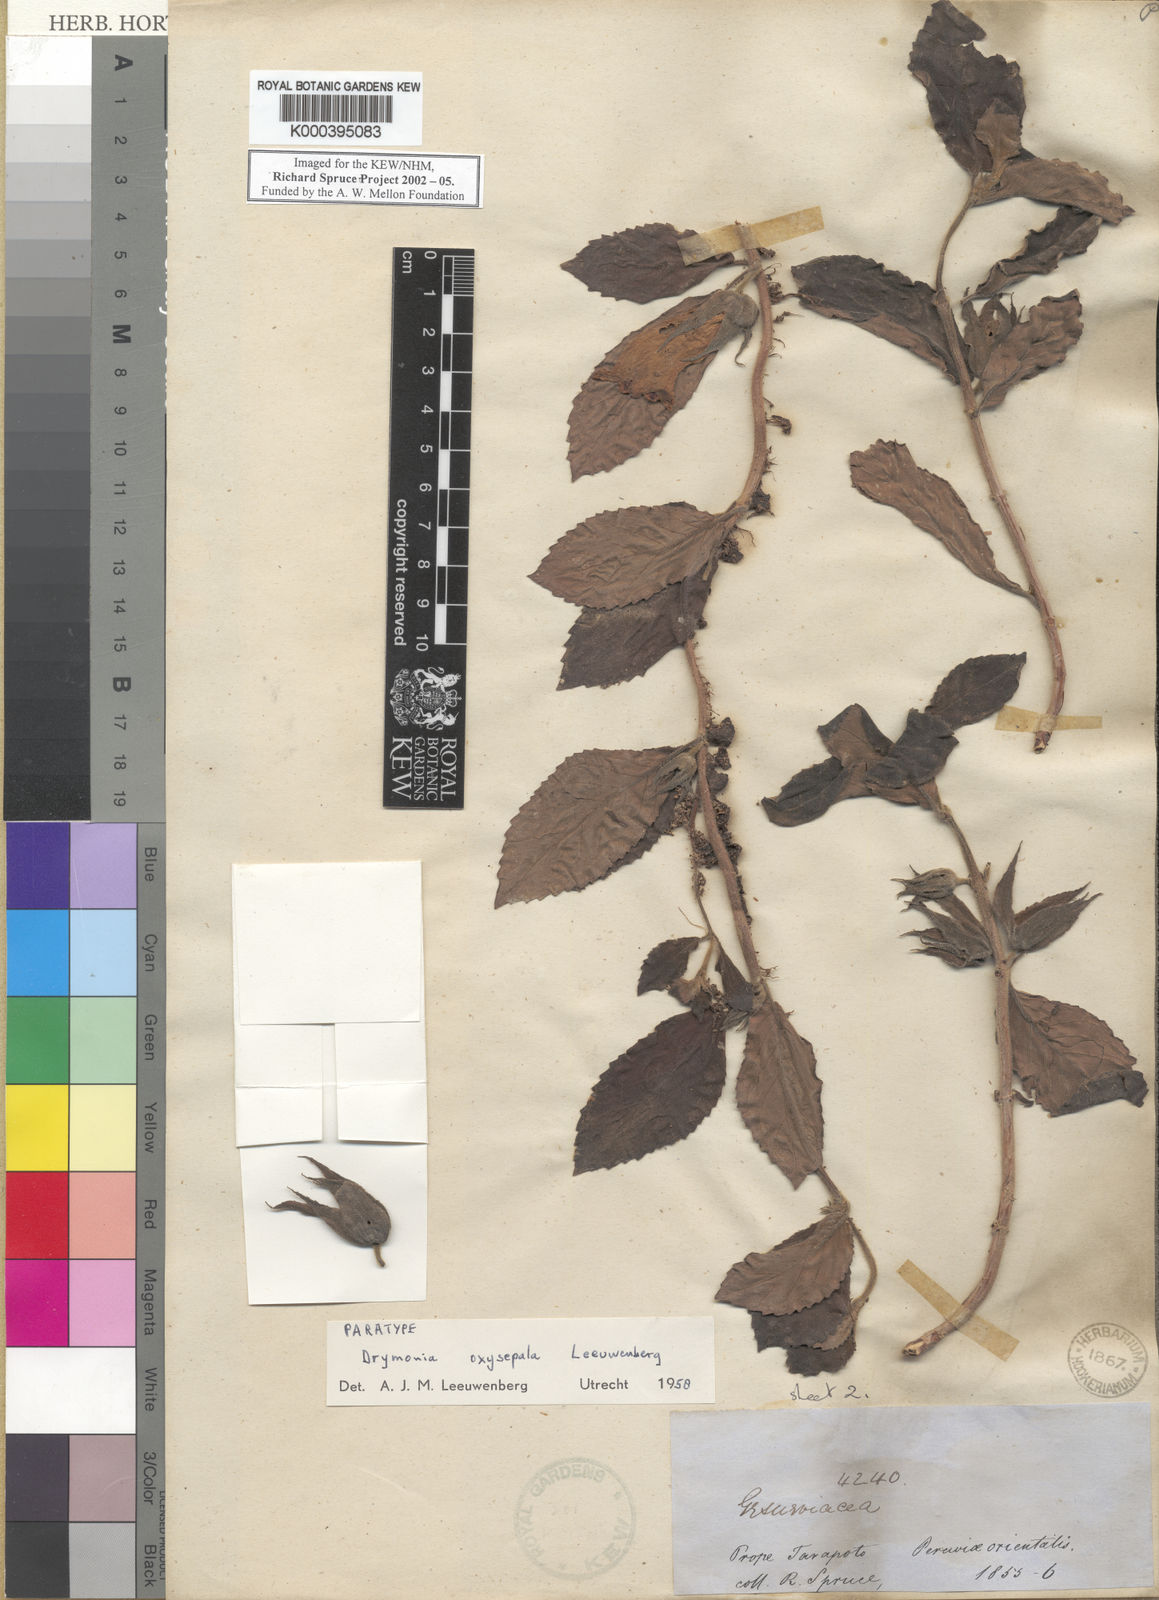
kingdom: Plantae
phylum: Tracheophyta
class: Magnoliopsida
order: Lamiales
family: Gesneriaceae
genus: Drymonia
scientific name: Drymonia oxysepala
